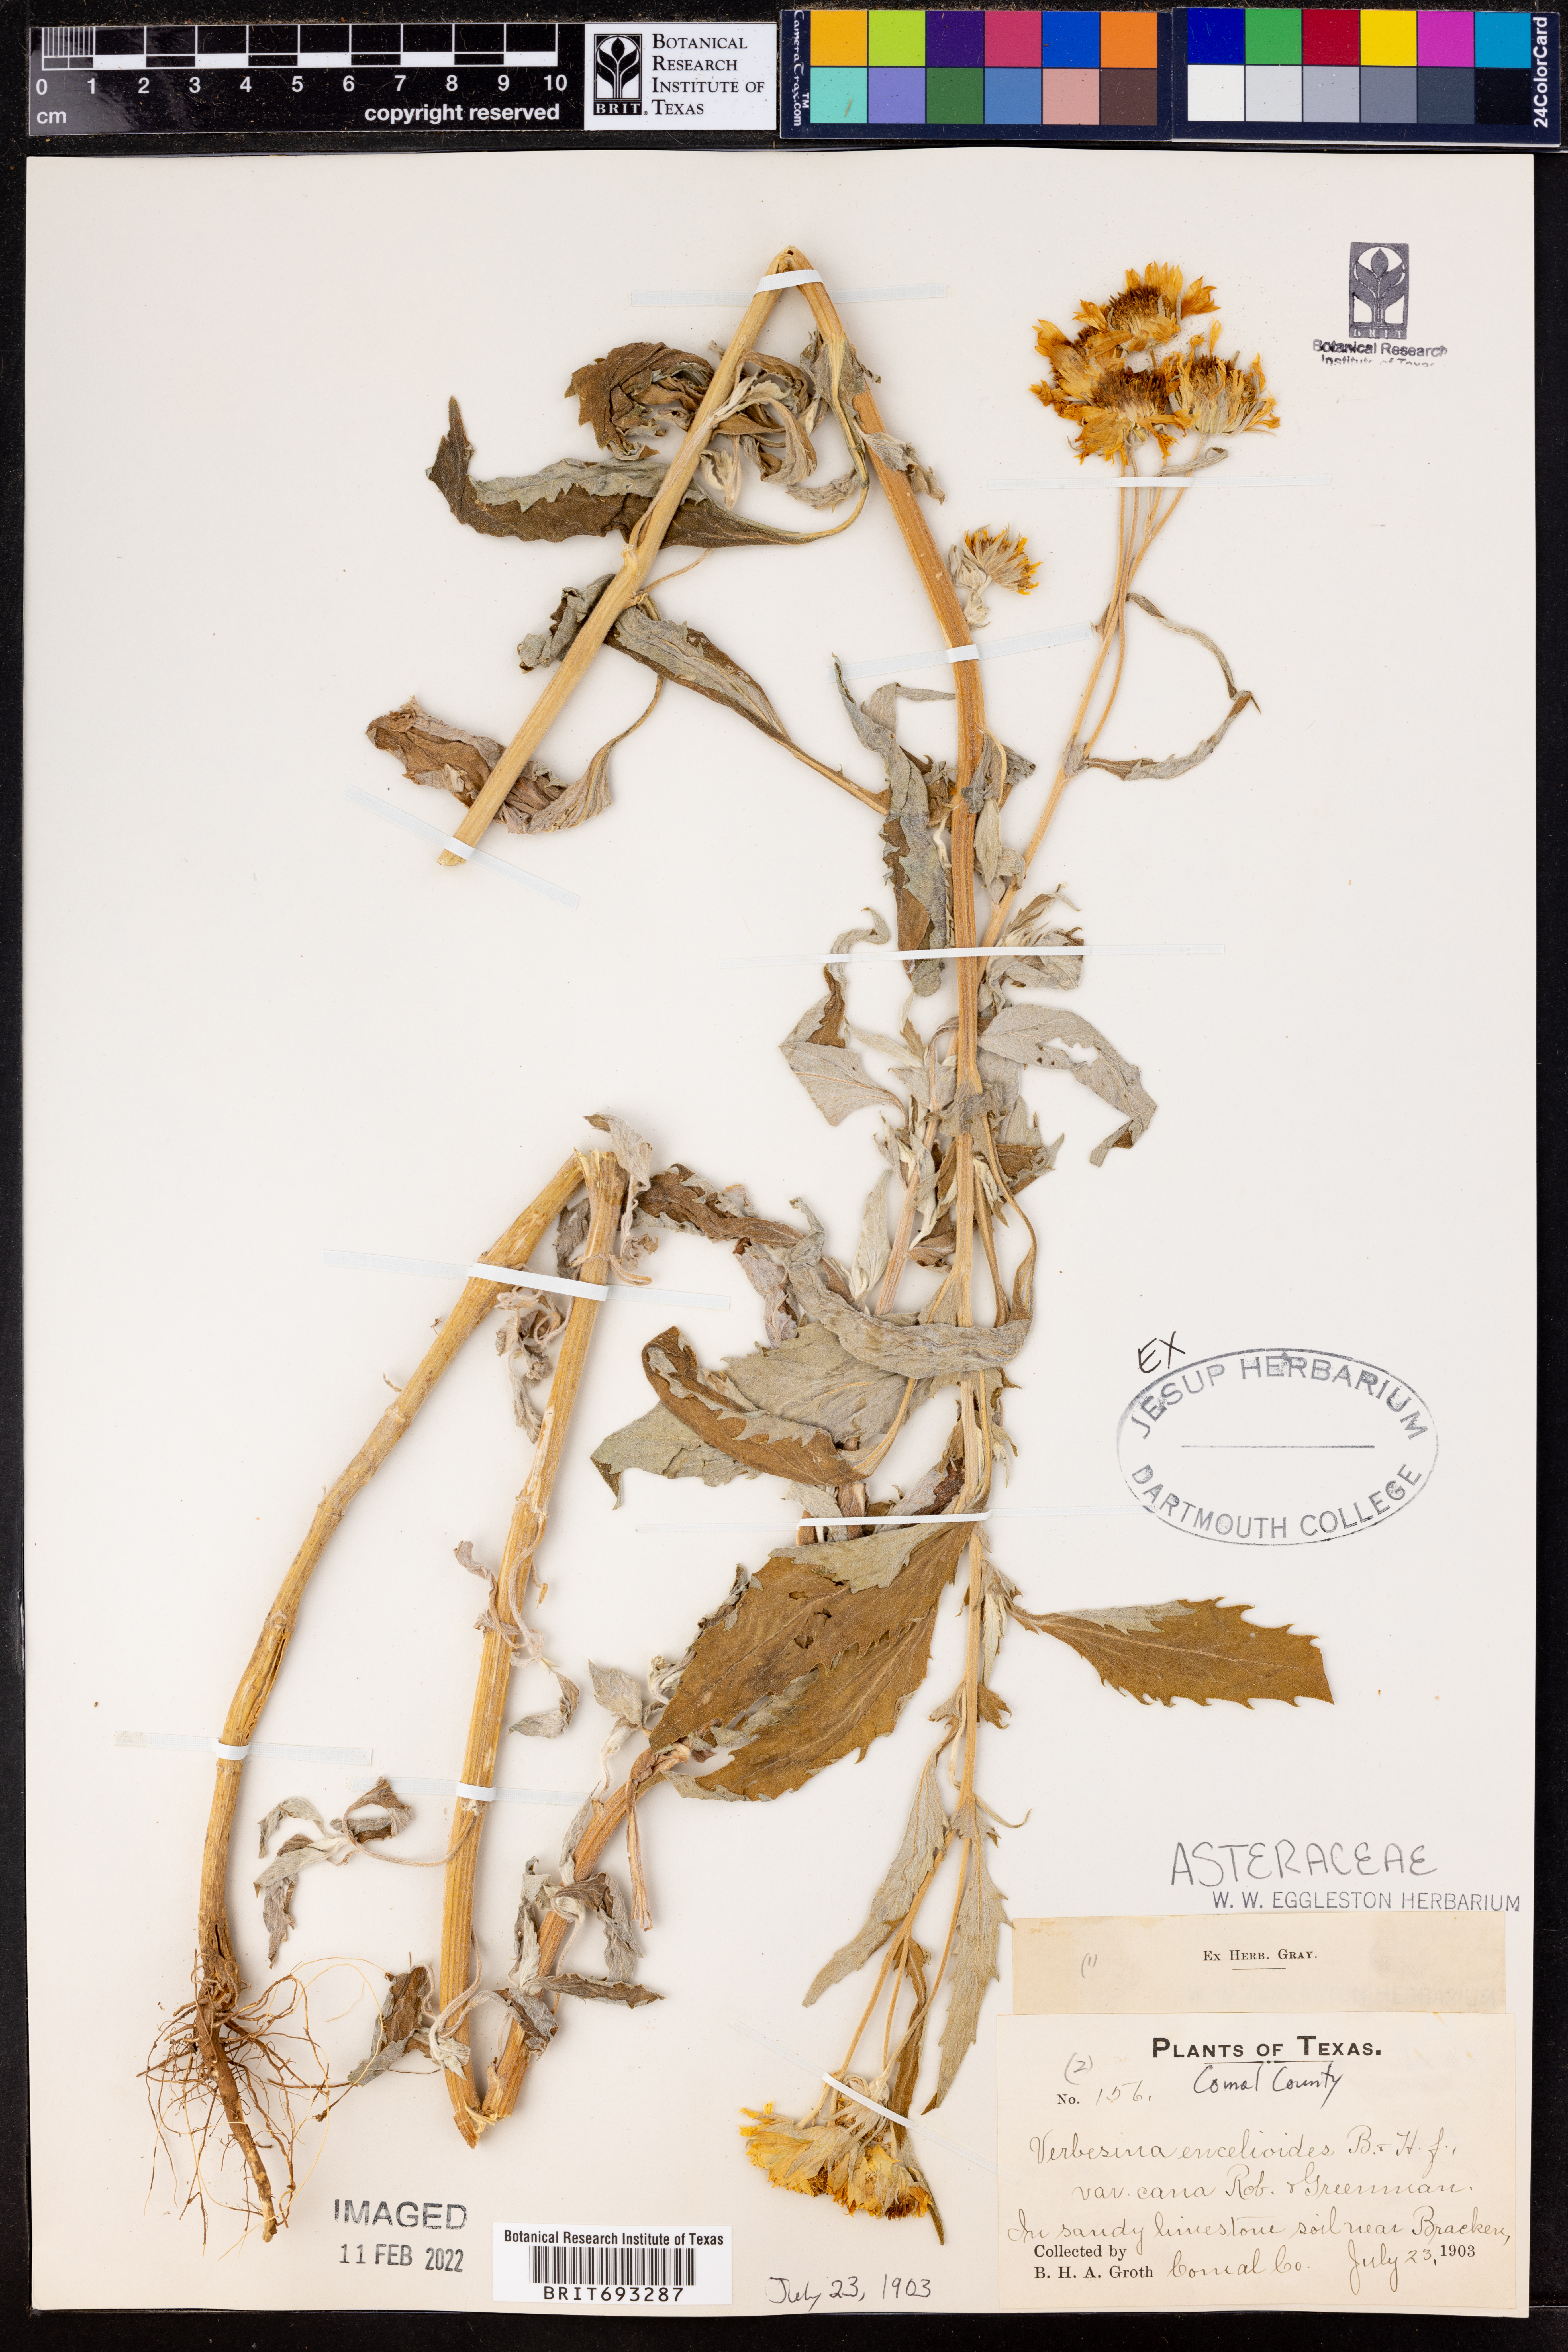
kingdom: Plantae
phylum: Tracheophyta
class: Magnoliopsida
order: Asterales
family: Asteraceae
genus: Verbesina
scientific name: Verbesina encelioides
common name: Golden crownbeard
